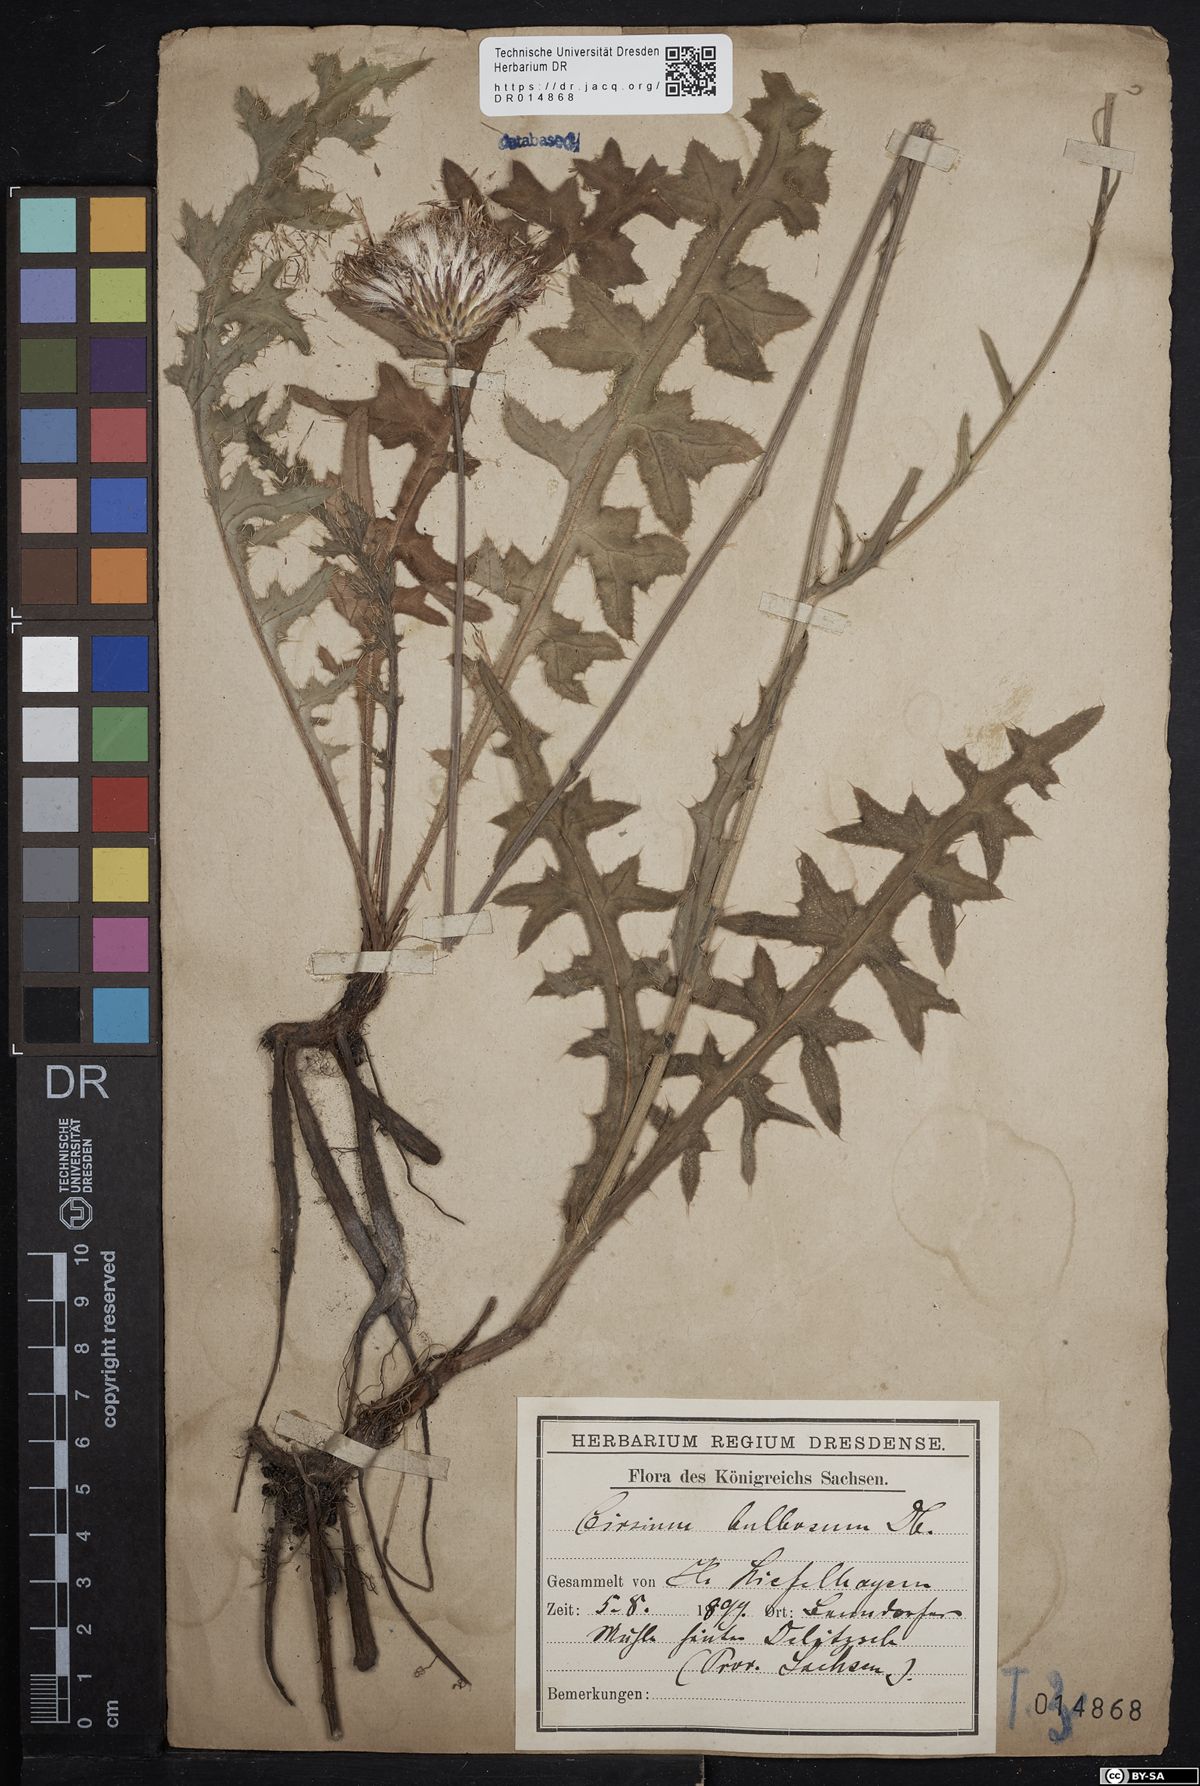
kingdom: Plantae
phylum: Tracheophyta
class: Magnoliopsida
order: Asterales
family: Asteraceae
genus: Cirsium
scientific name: Cirsium tuberosum
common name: Tuberous thistle
